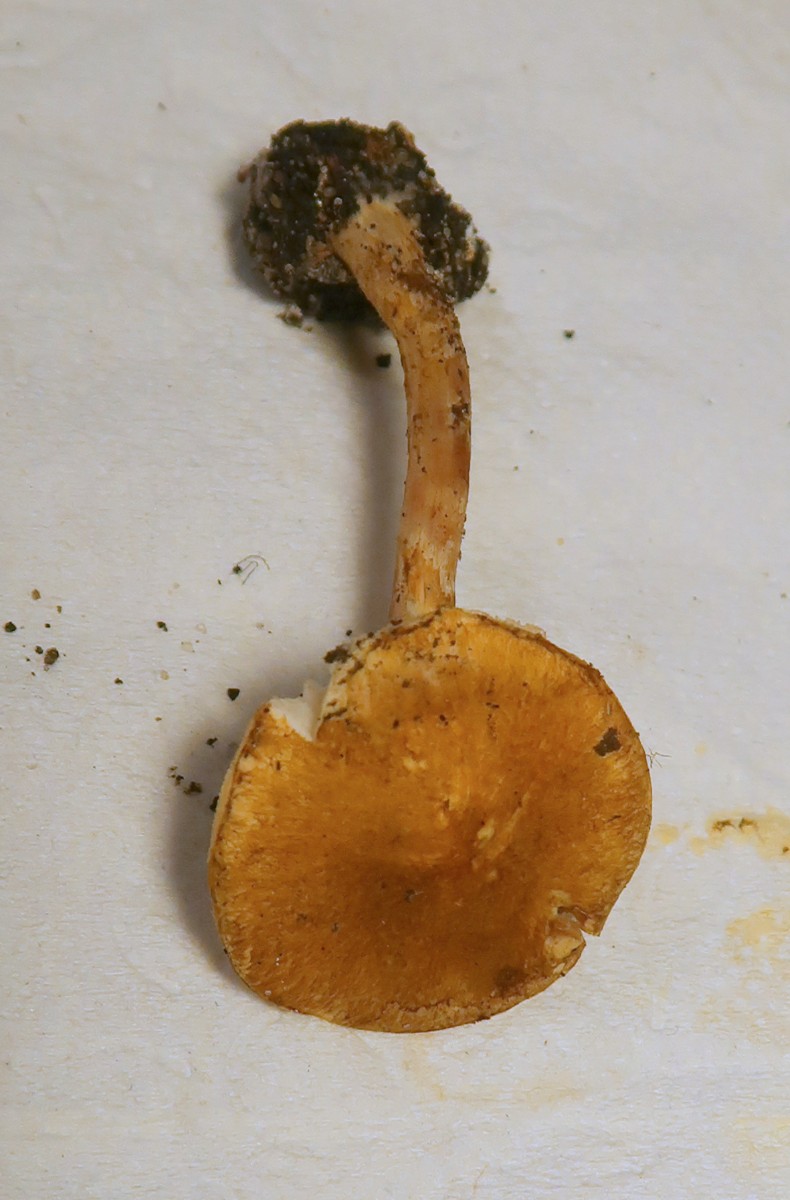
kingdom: Fungi
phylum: Basidiomycota
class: Agaricomycetes
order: Agaricales
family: Agaricaceae
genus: Leucocoprinus
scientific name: Leucocoprinus straminellus
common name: rustbrun parasolhat
